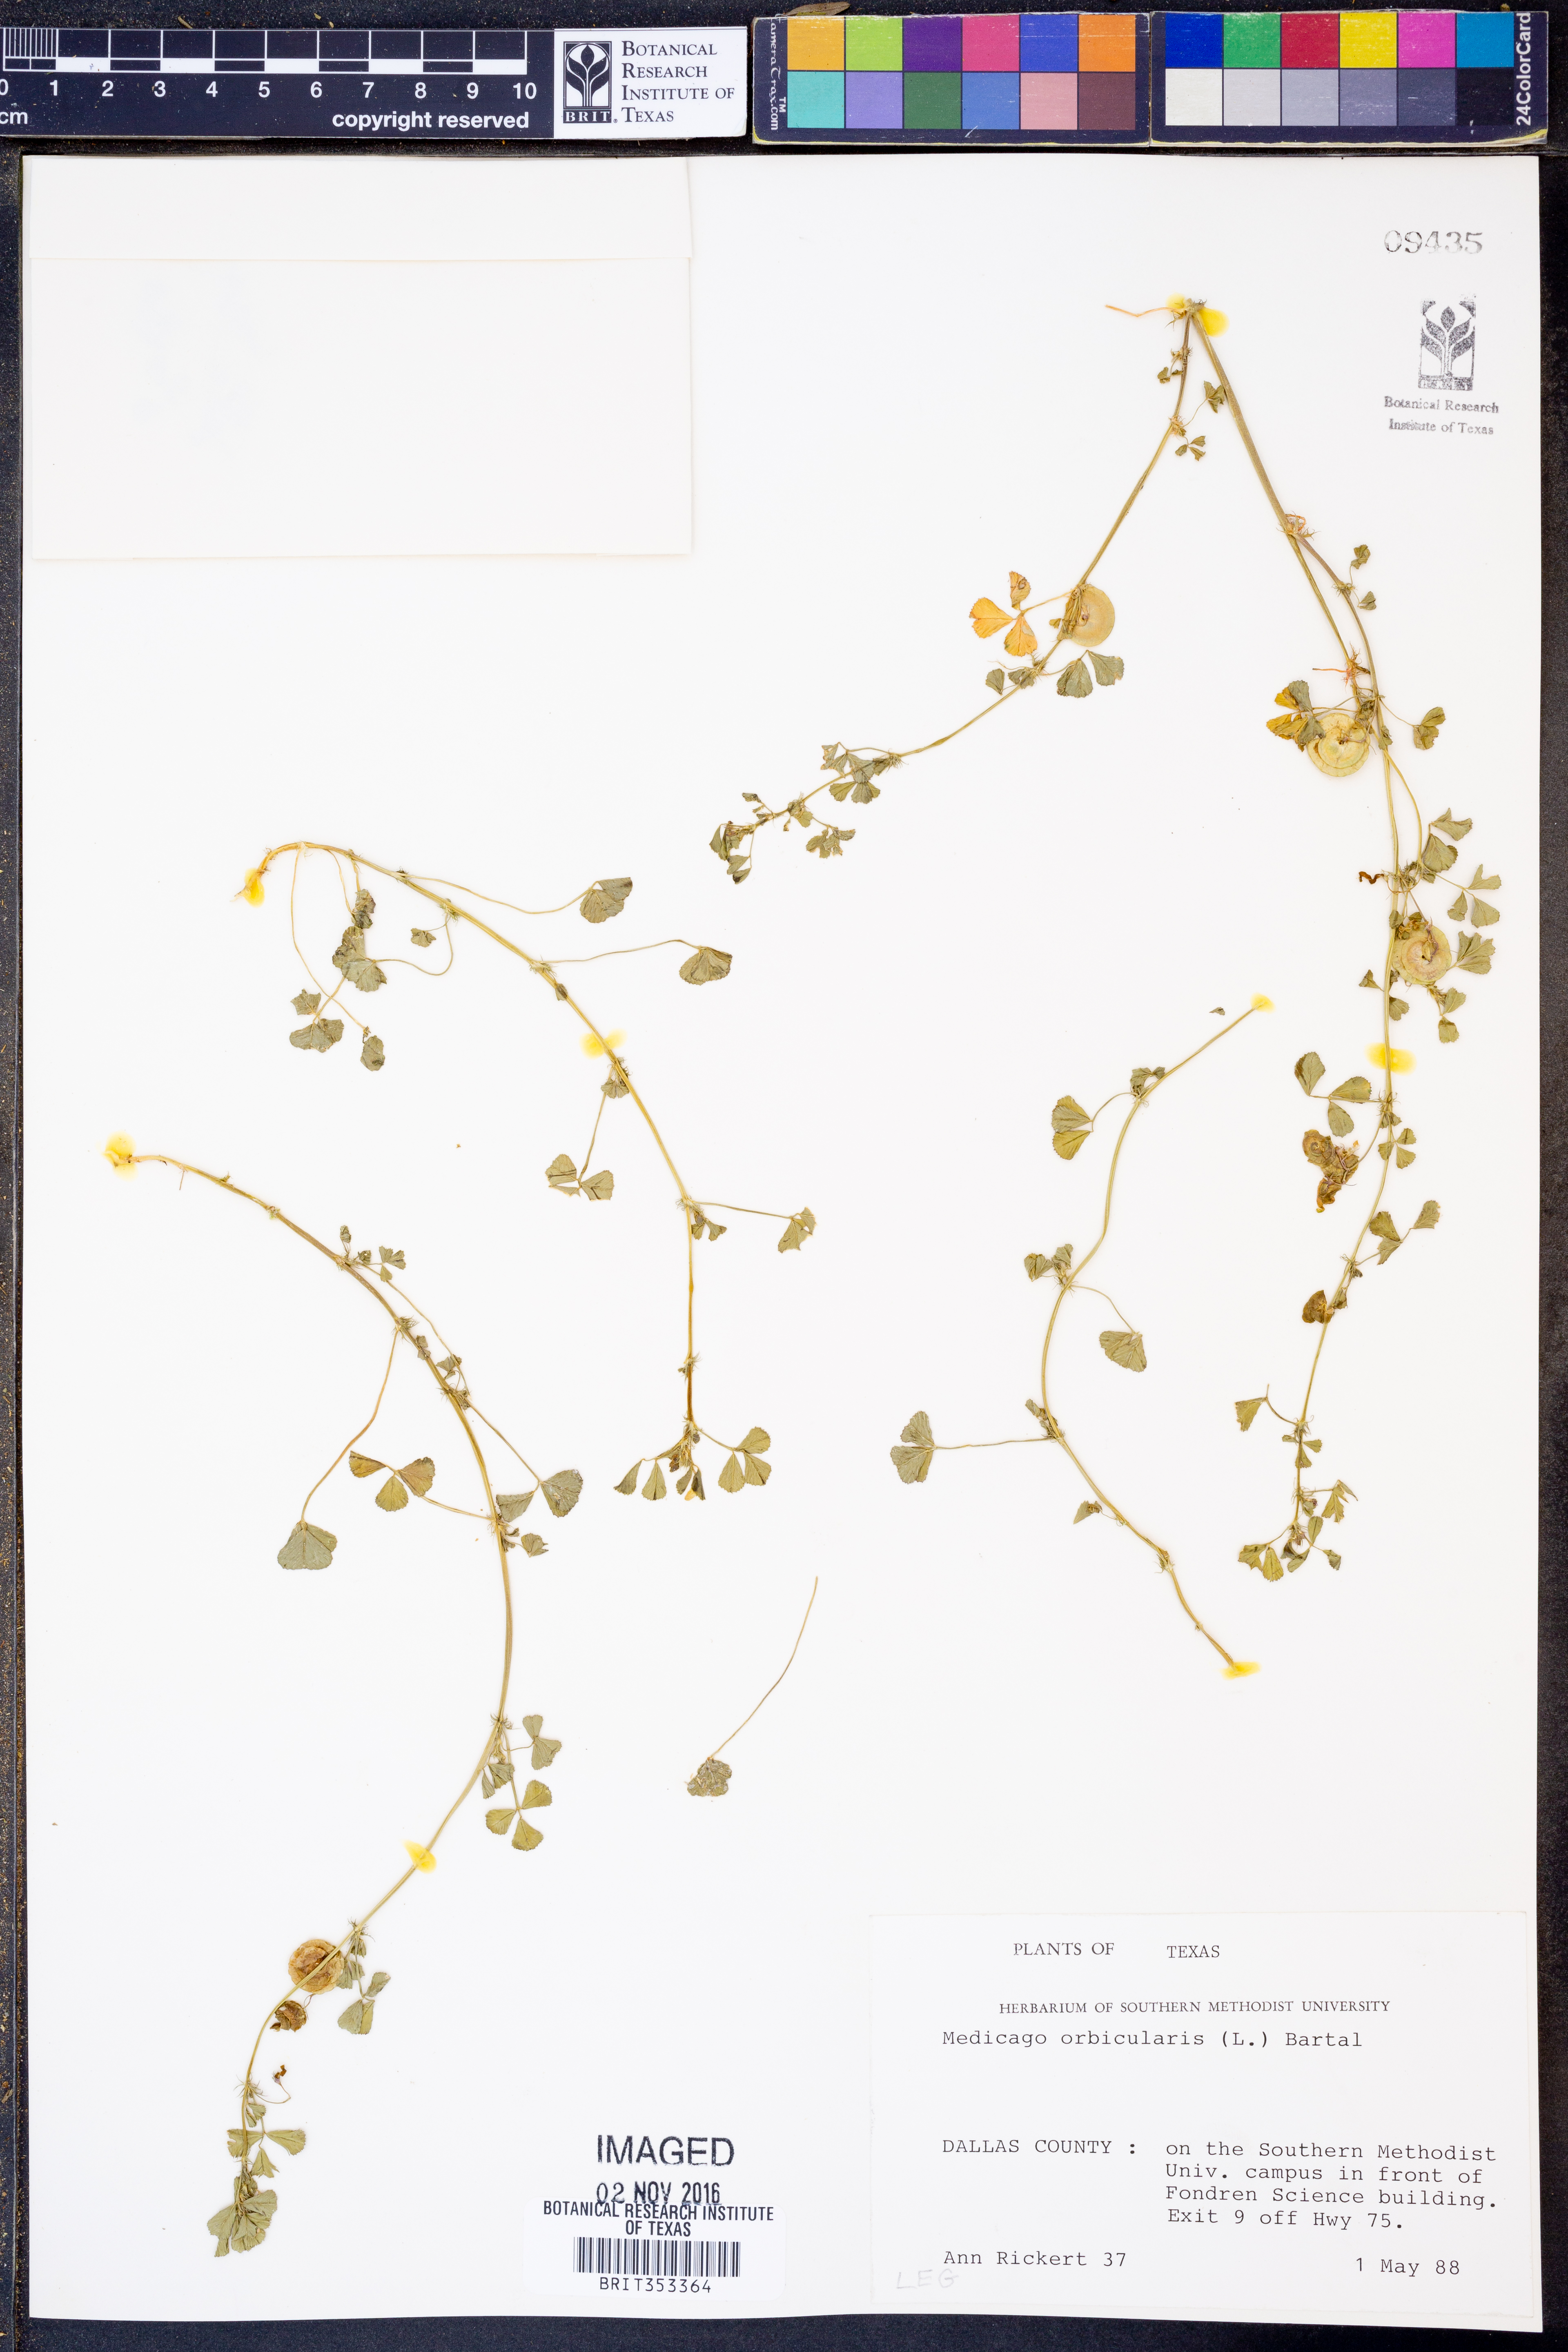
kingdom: Plantae
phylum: Tracheophyta
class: Magnoliopsida
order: Fabales
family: Fabaceae
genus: Medicago
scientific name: Medicago orbicularis
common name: Button medick
